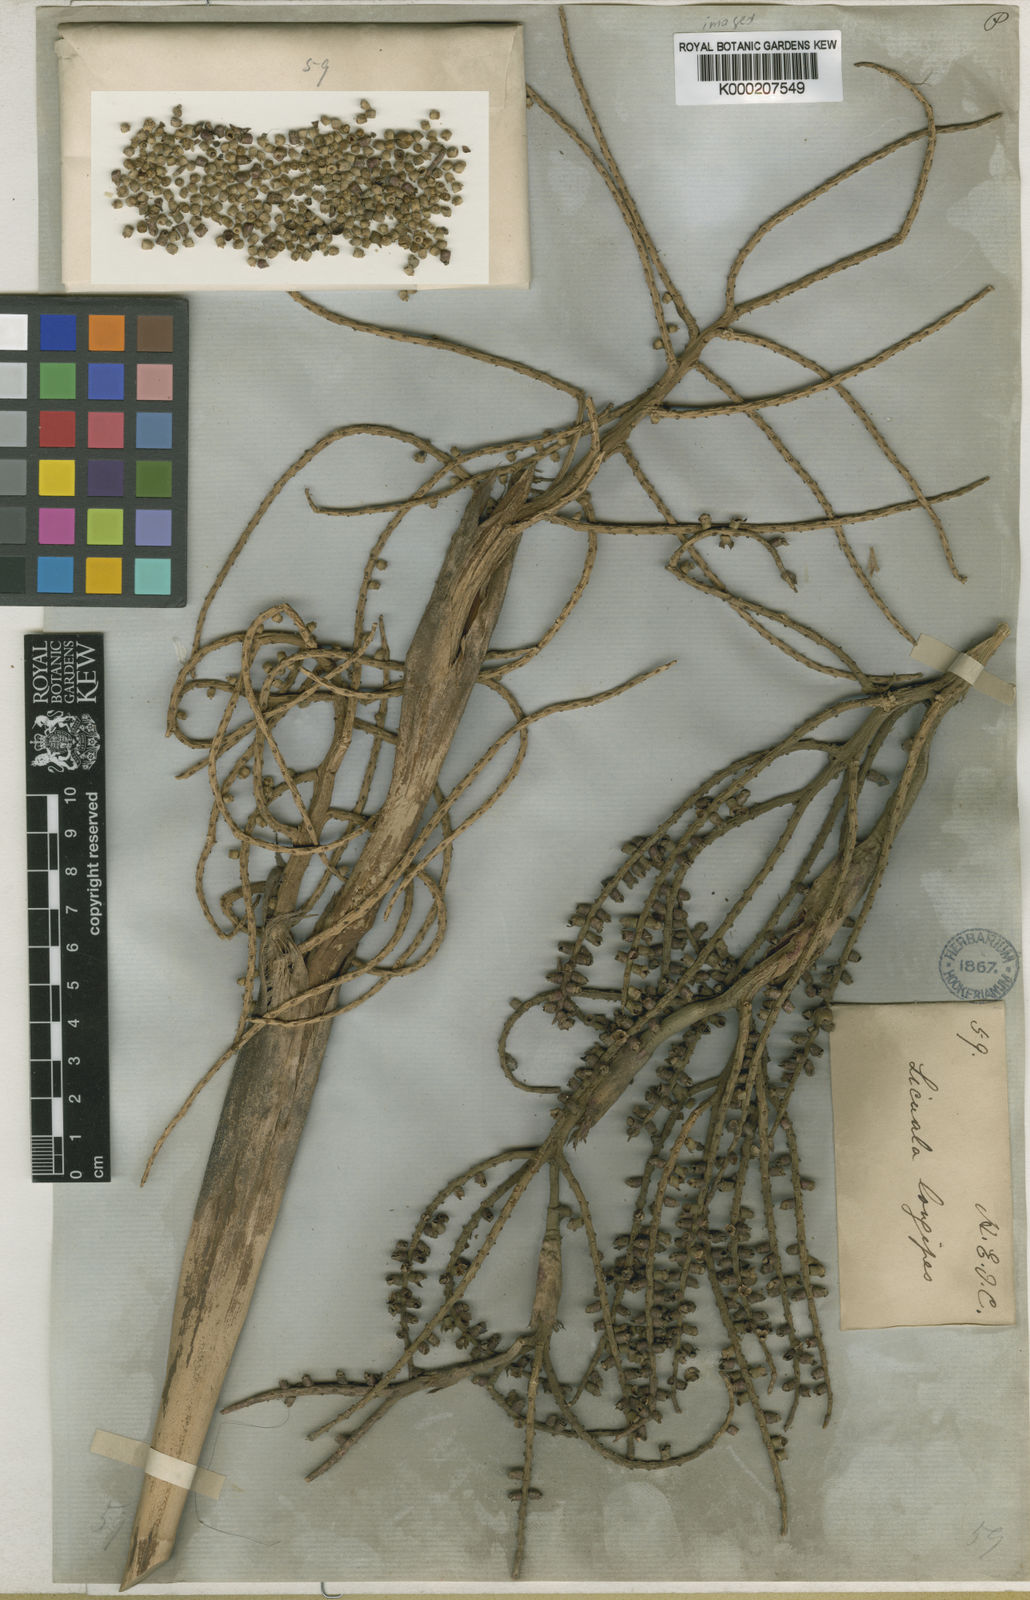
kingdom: Plantae
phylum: Tracheophyta
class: Liliopsida
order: Arecales
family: Arecaceae
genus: Licuala
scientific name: Licuala longipes
